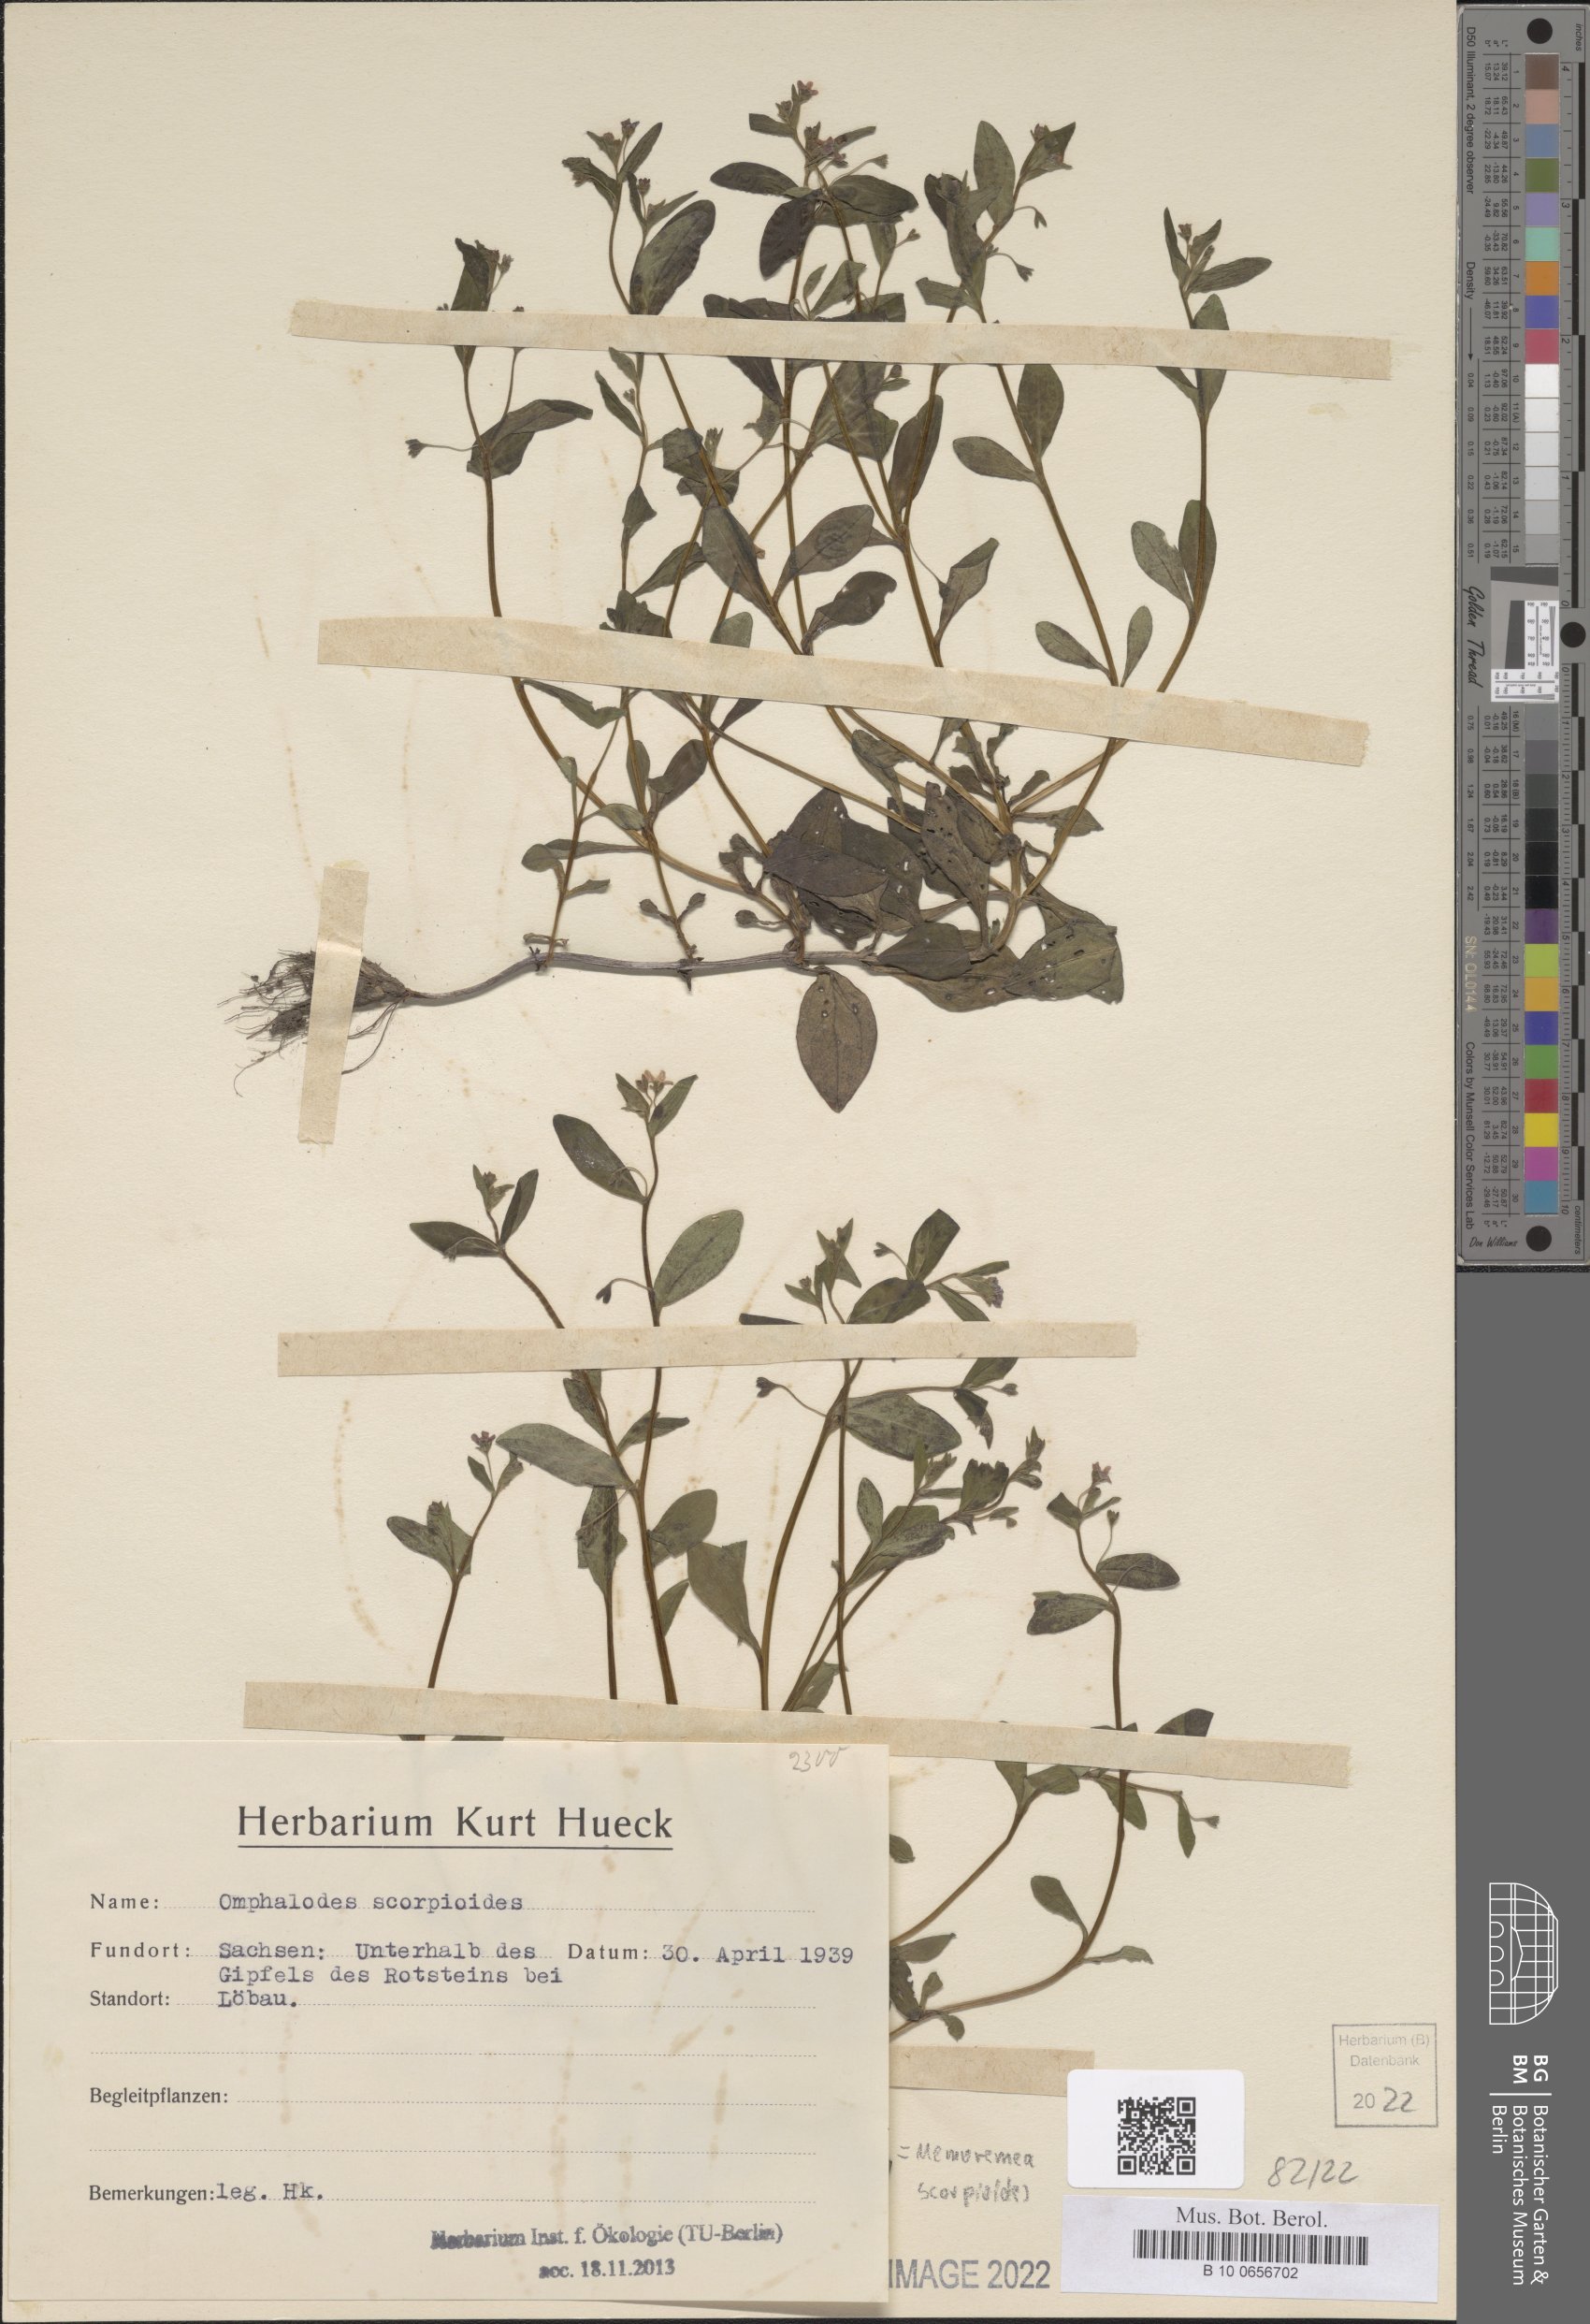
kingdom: Plantae
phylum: Tracheophyta
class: Magnoliopsida
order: Boraginales
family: Boraginaceae
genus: Memoremea
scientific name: Memoremea scorpioides
